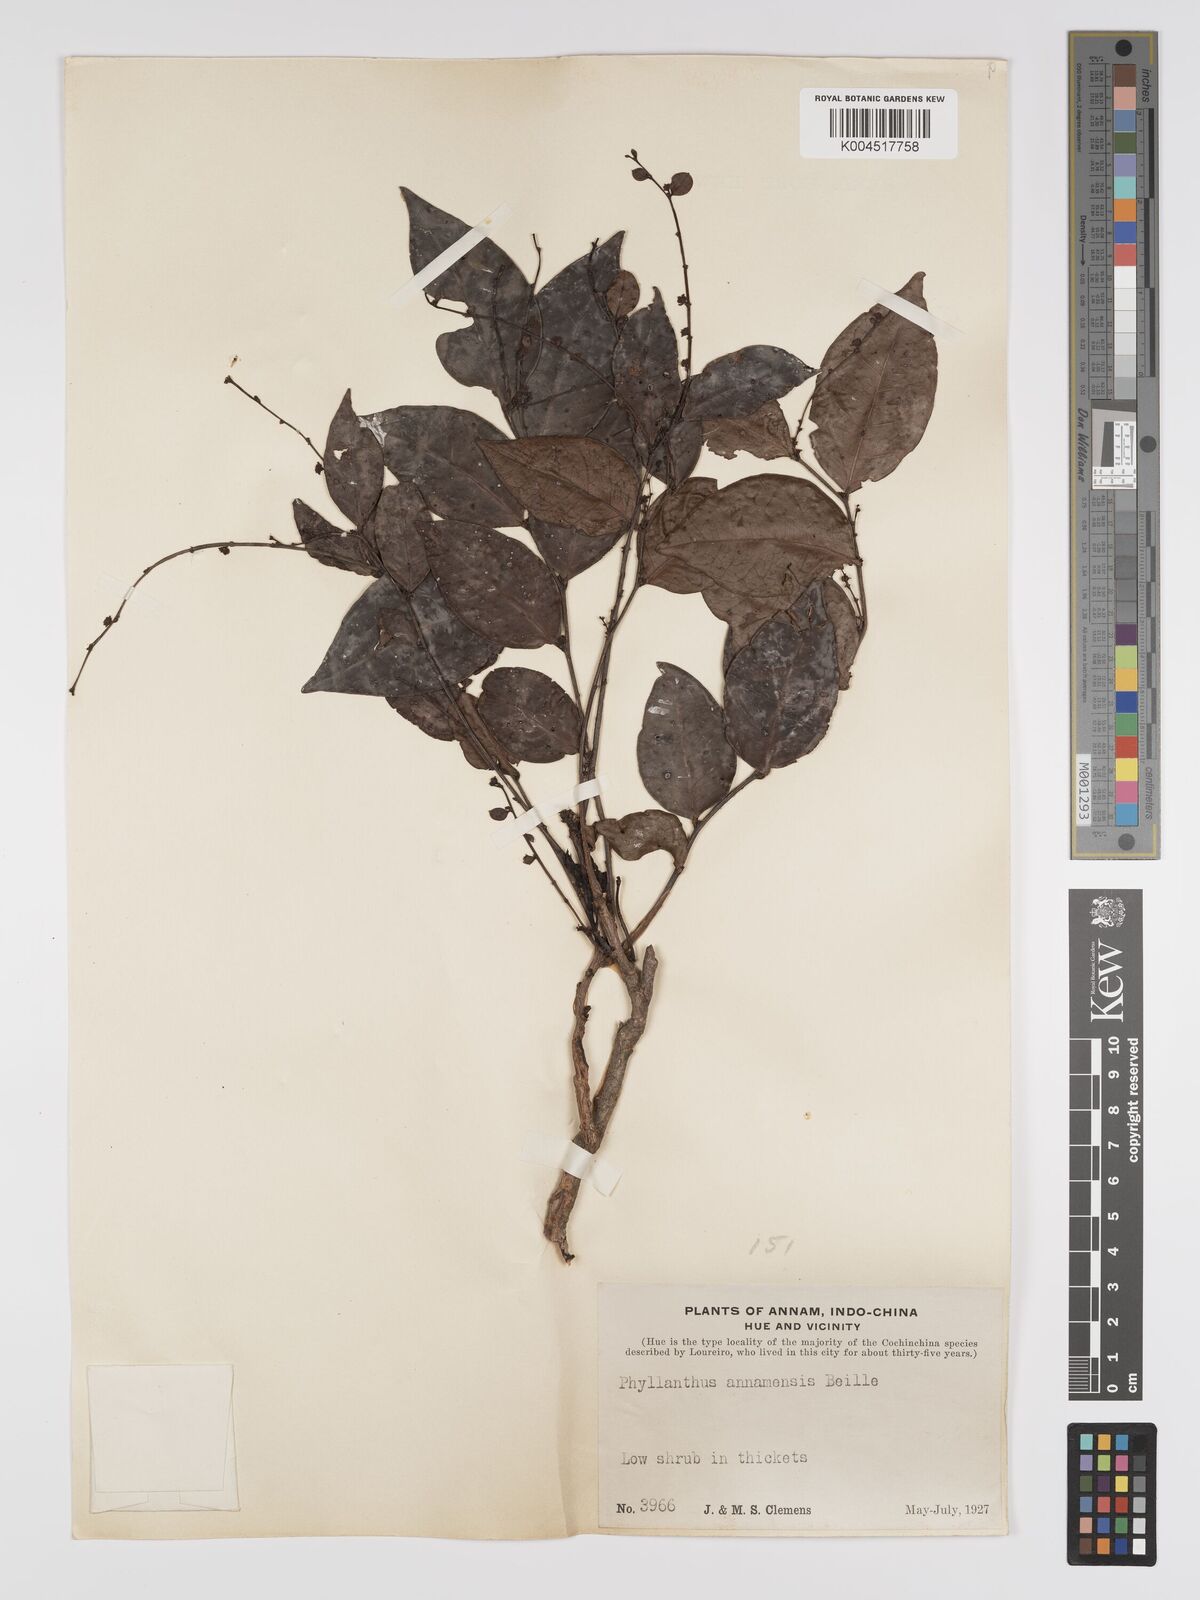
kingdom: Plantae
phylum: Tracheophyta
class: Magnoliopsida
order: Malpighiales
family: Phyllanthaceae
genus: Phyllanthus
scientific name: Phyllanthus pachyphyllus
